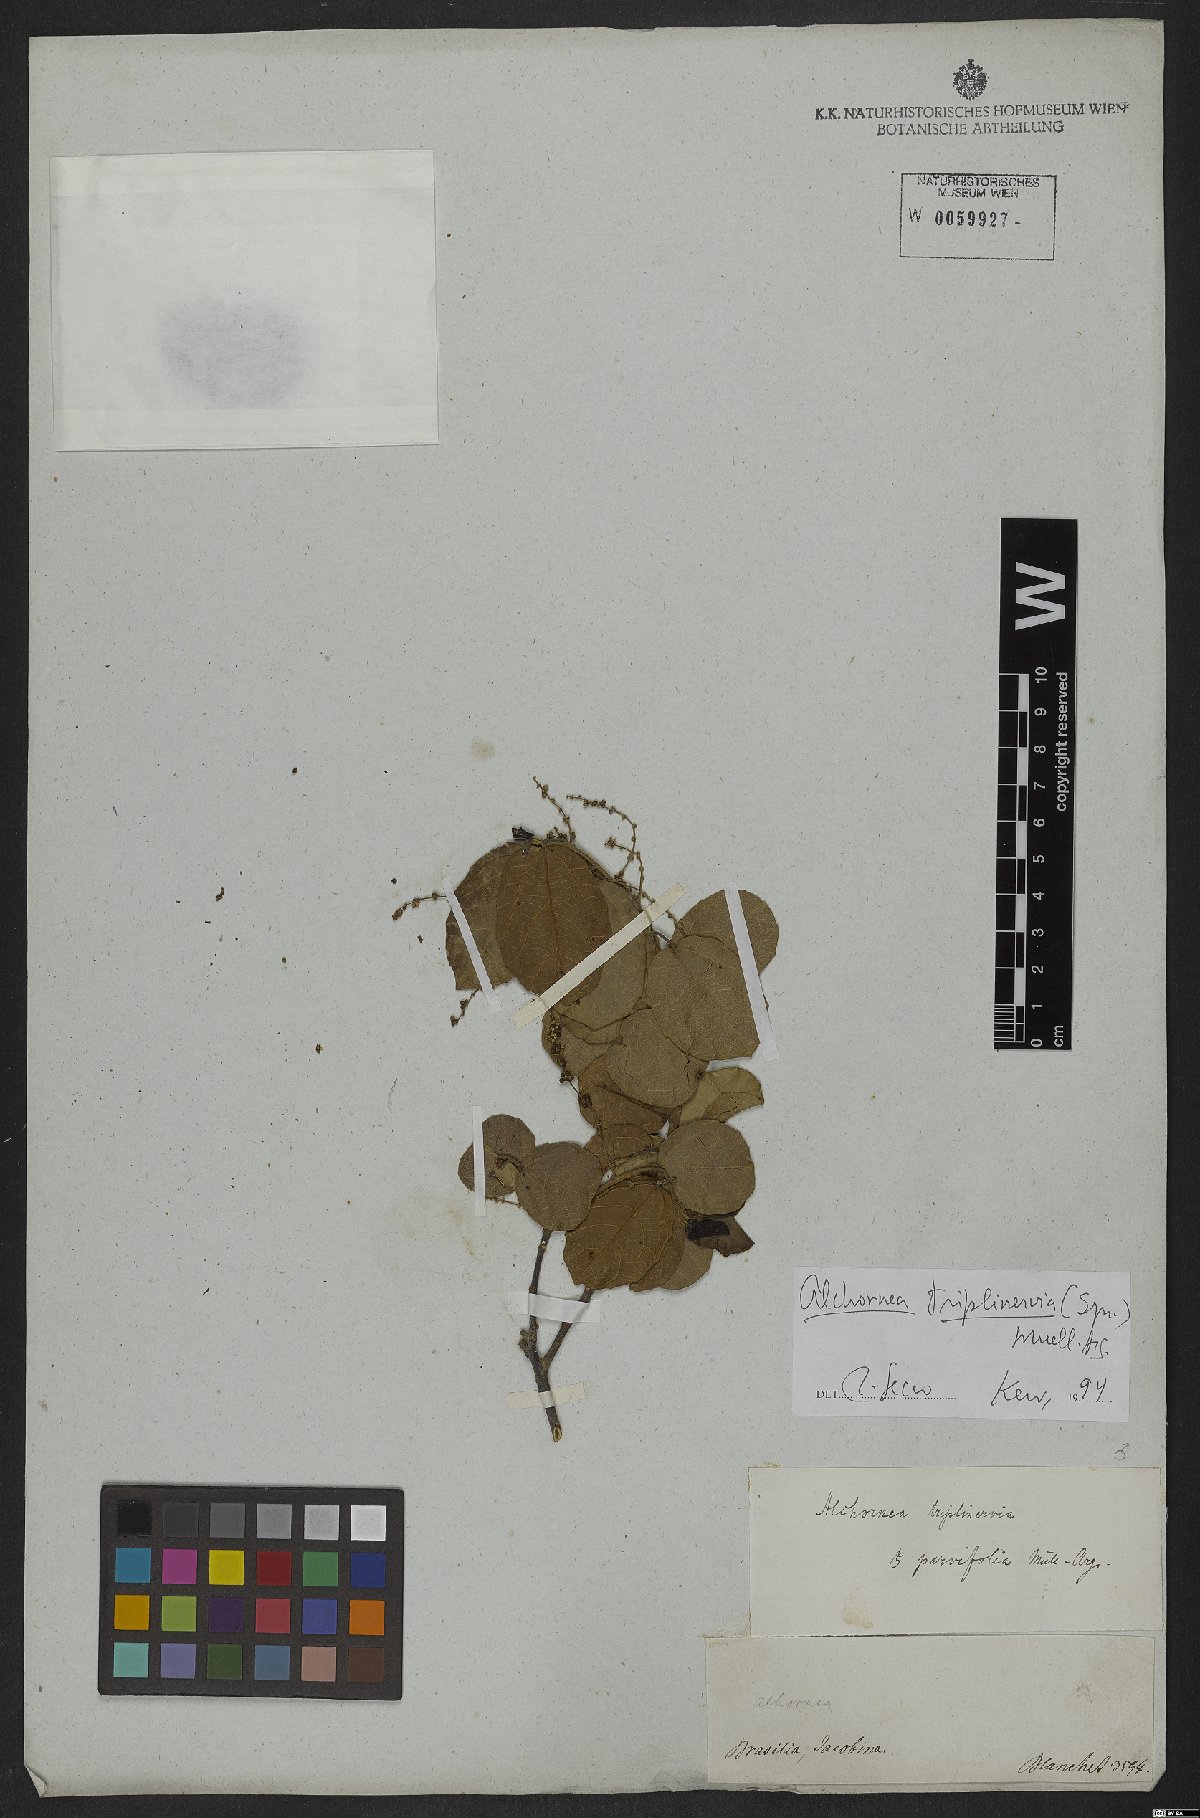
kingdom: Plantae
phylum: Tracheophyta
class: Magnoliopsida
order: Malpighiales
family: Euphorbiaceae
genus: Alchornea
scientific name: Alchornea triplinervia
